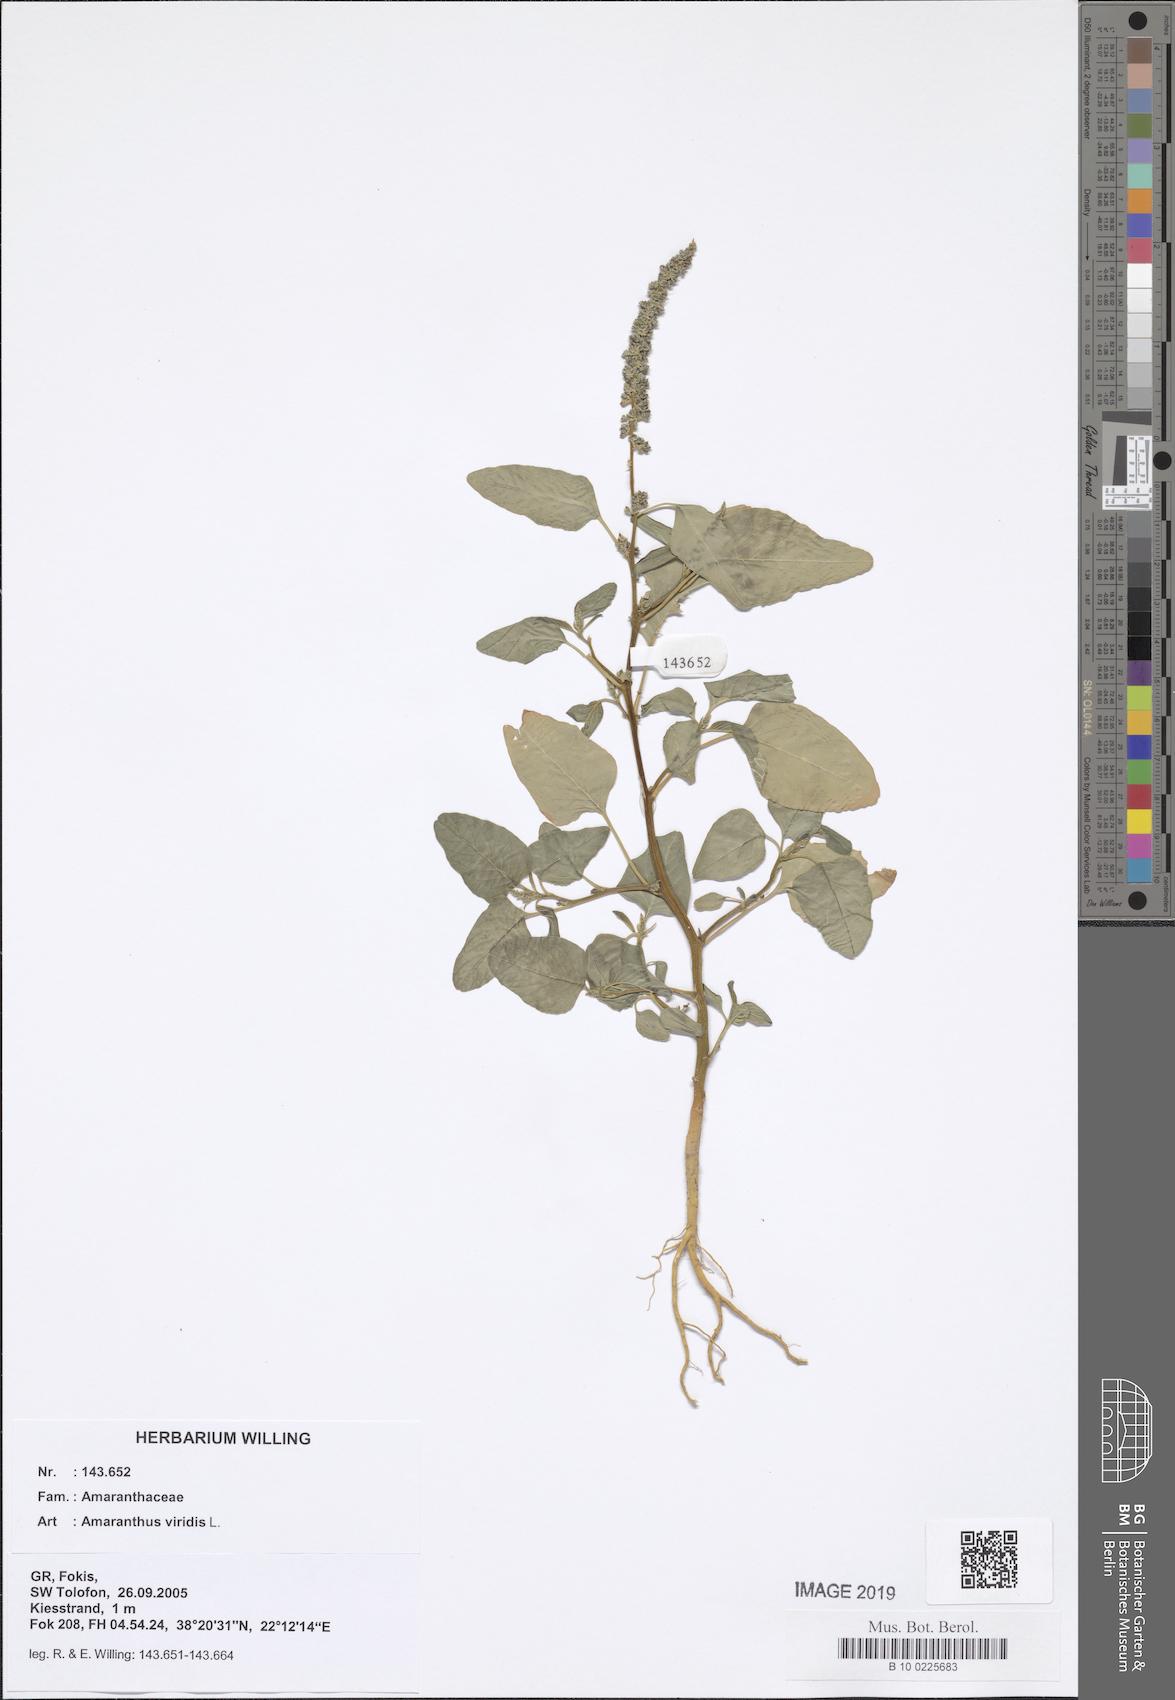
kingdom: Plantae
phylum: Tracheophyta
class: Magnoliopsida
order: Caryophyllales
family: Amaranthaceae
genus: Amaranthus
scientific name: Amaranthus viridis
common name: Slender amaranth
